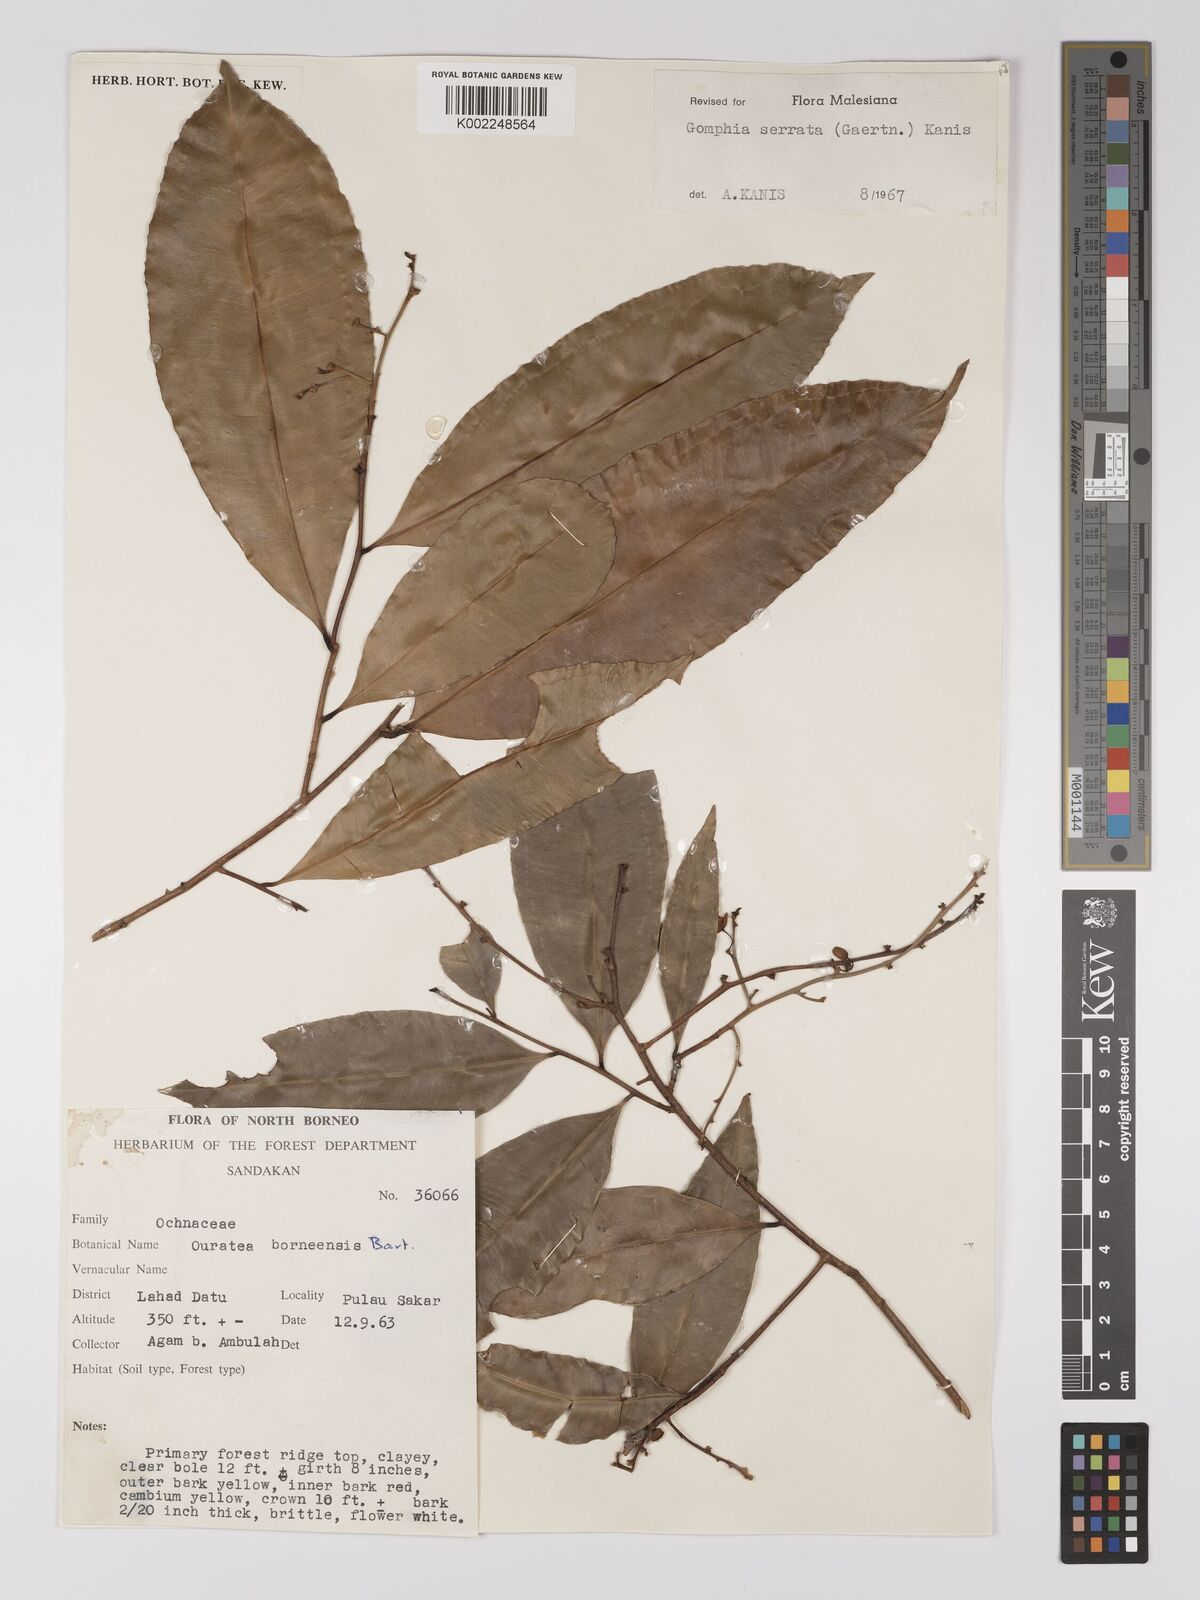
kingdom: Plantae
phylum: Tracheophyta
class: Magnoliopsida
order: Malpighiales
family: Ochnaceae
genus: Gomphia
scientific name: Gomphia serrata
